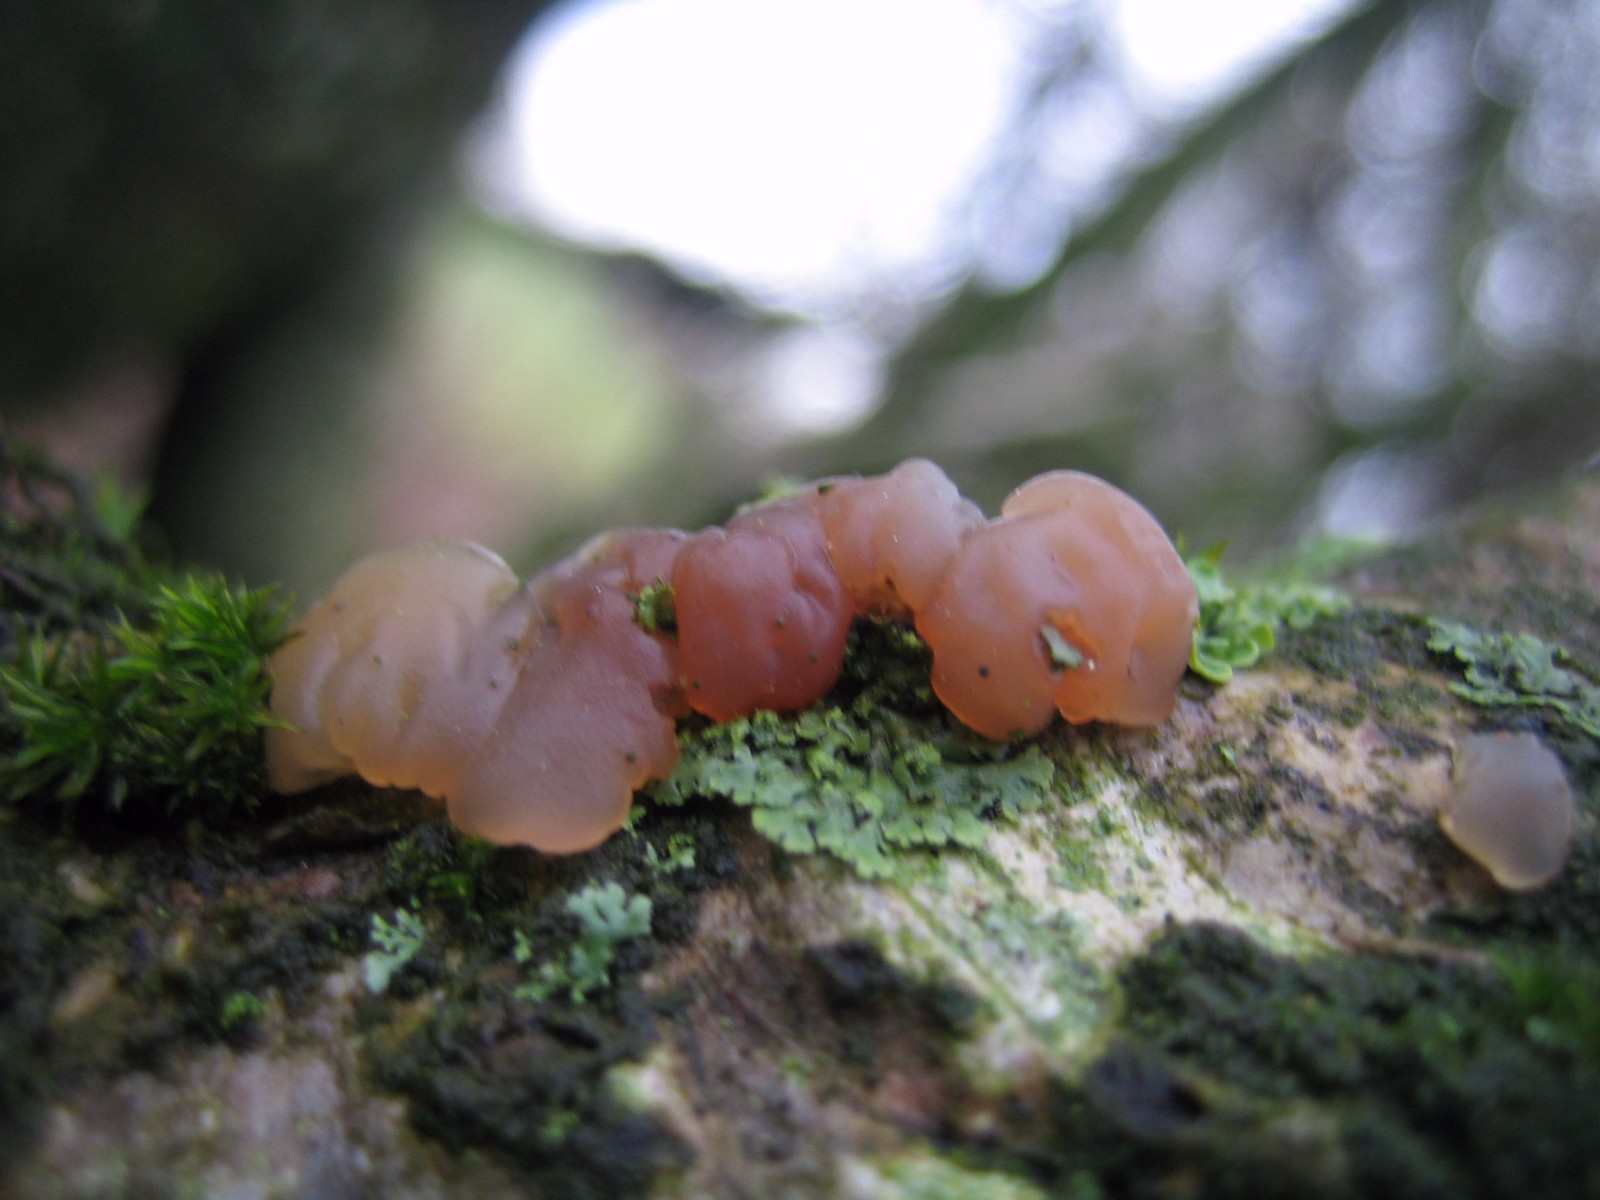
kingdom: Fungi
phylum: Basidiomycota
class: Agaricomycetes
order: Auriculariales
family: Hyaloriaceae
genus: Myxarium
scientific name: Myxarium
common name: bævretop
